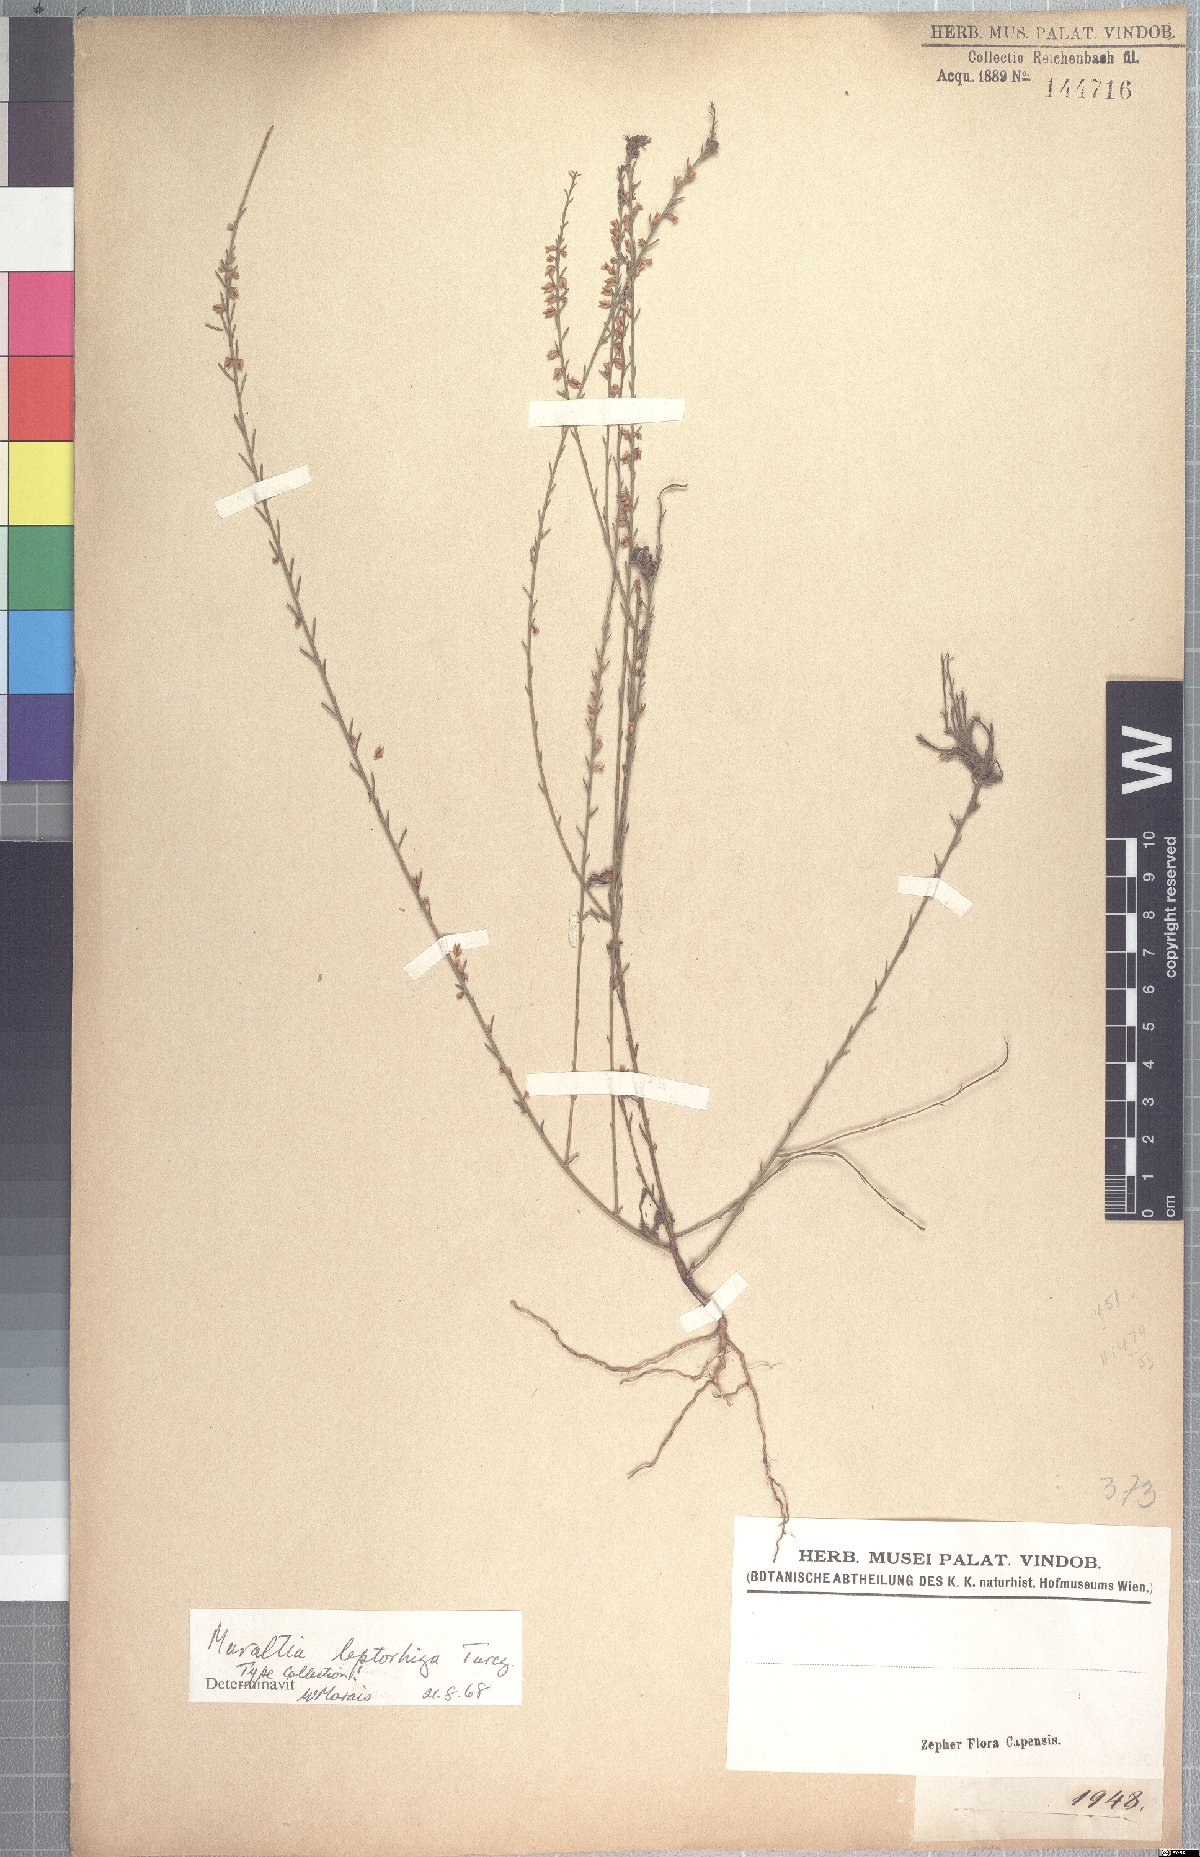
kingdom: Plantae
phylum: Tracheophyta
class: Magnoliopsida
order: Fabales
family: Polygalaceae
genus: Muraltia
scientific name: Muraltia leptorhiza
